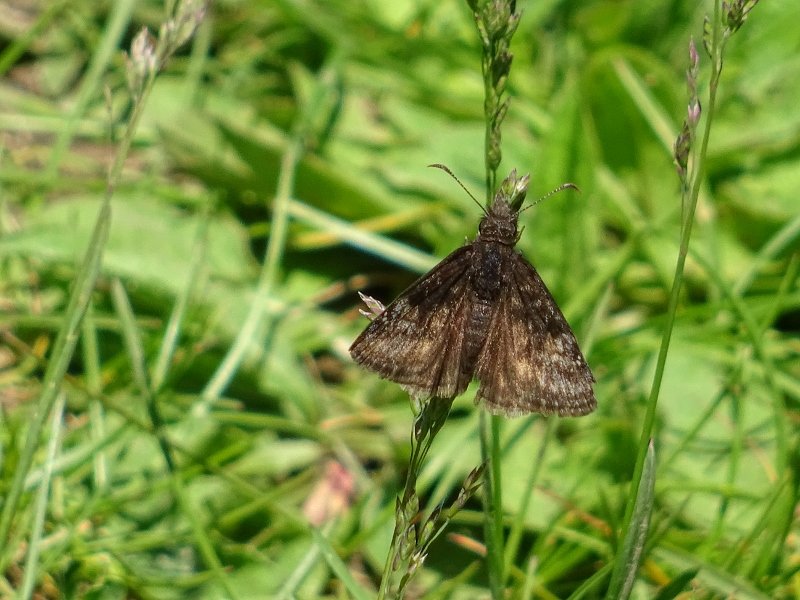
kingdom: Animalia
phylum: Arthropoda
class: Insecta
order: Lepidoptera
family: Hesperiidae
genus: Gesta
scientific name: Gesta
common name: Wild Indigo Duskywing
